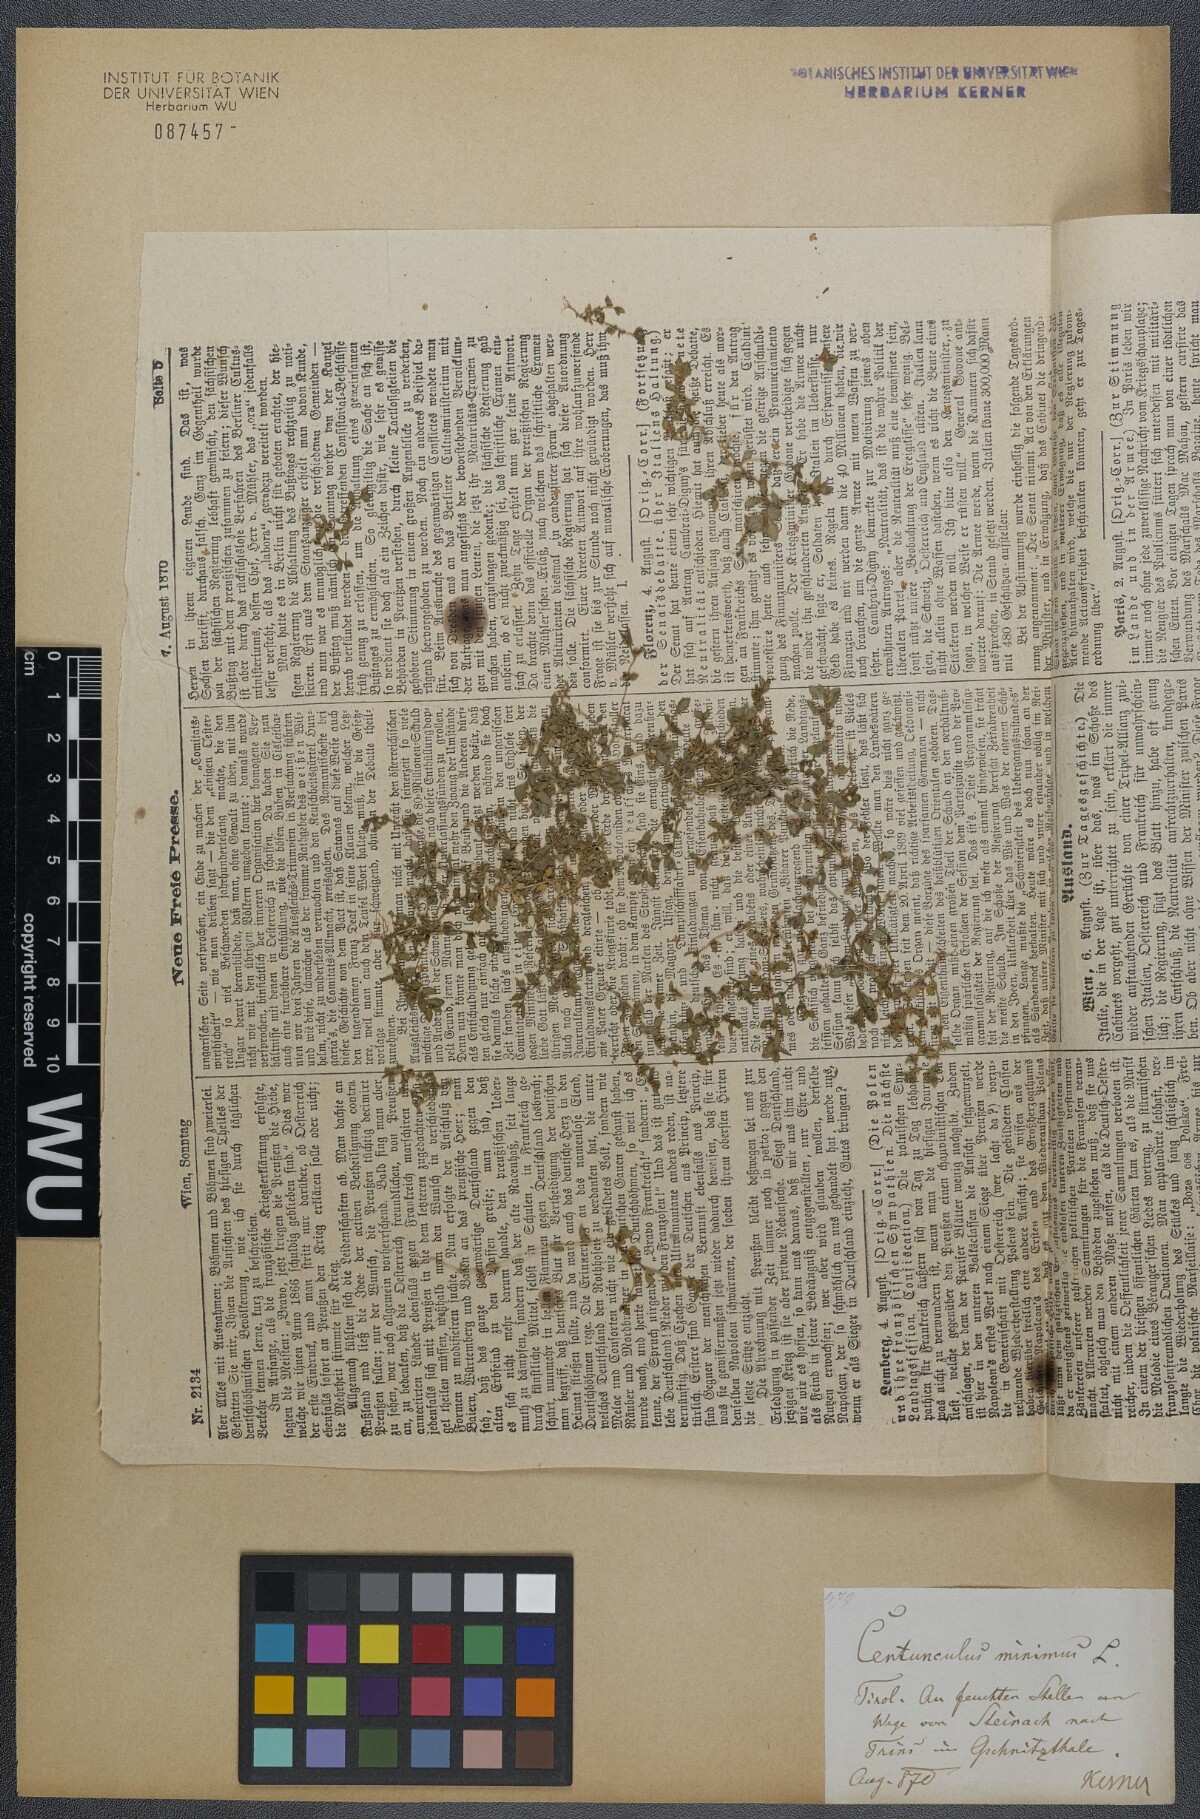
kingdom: Plantae
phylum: Tracheophyta
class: Magnoliopsida
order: Ericales
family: Primulaceae
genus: Lysimachia
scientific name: Lysimachia minima
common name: Chaffweed
